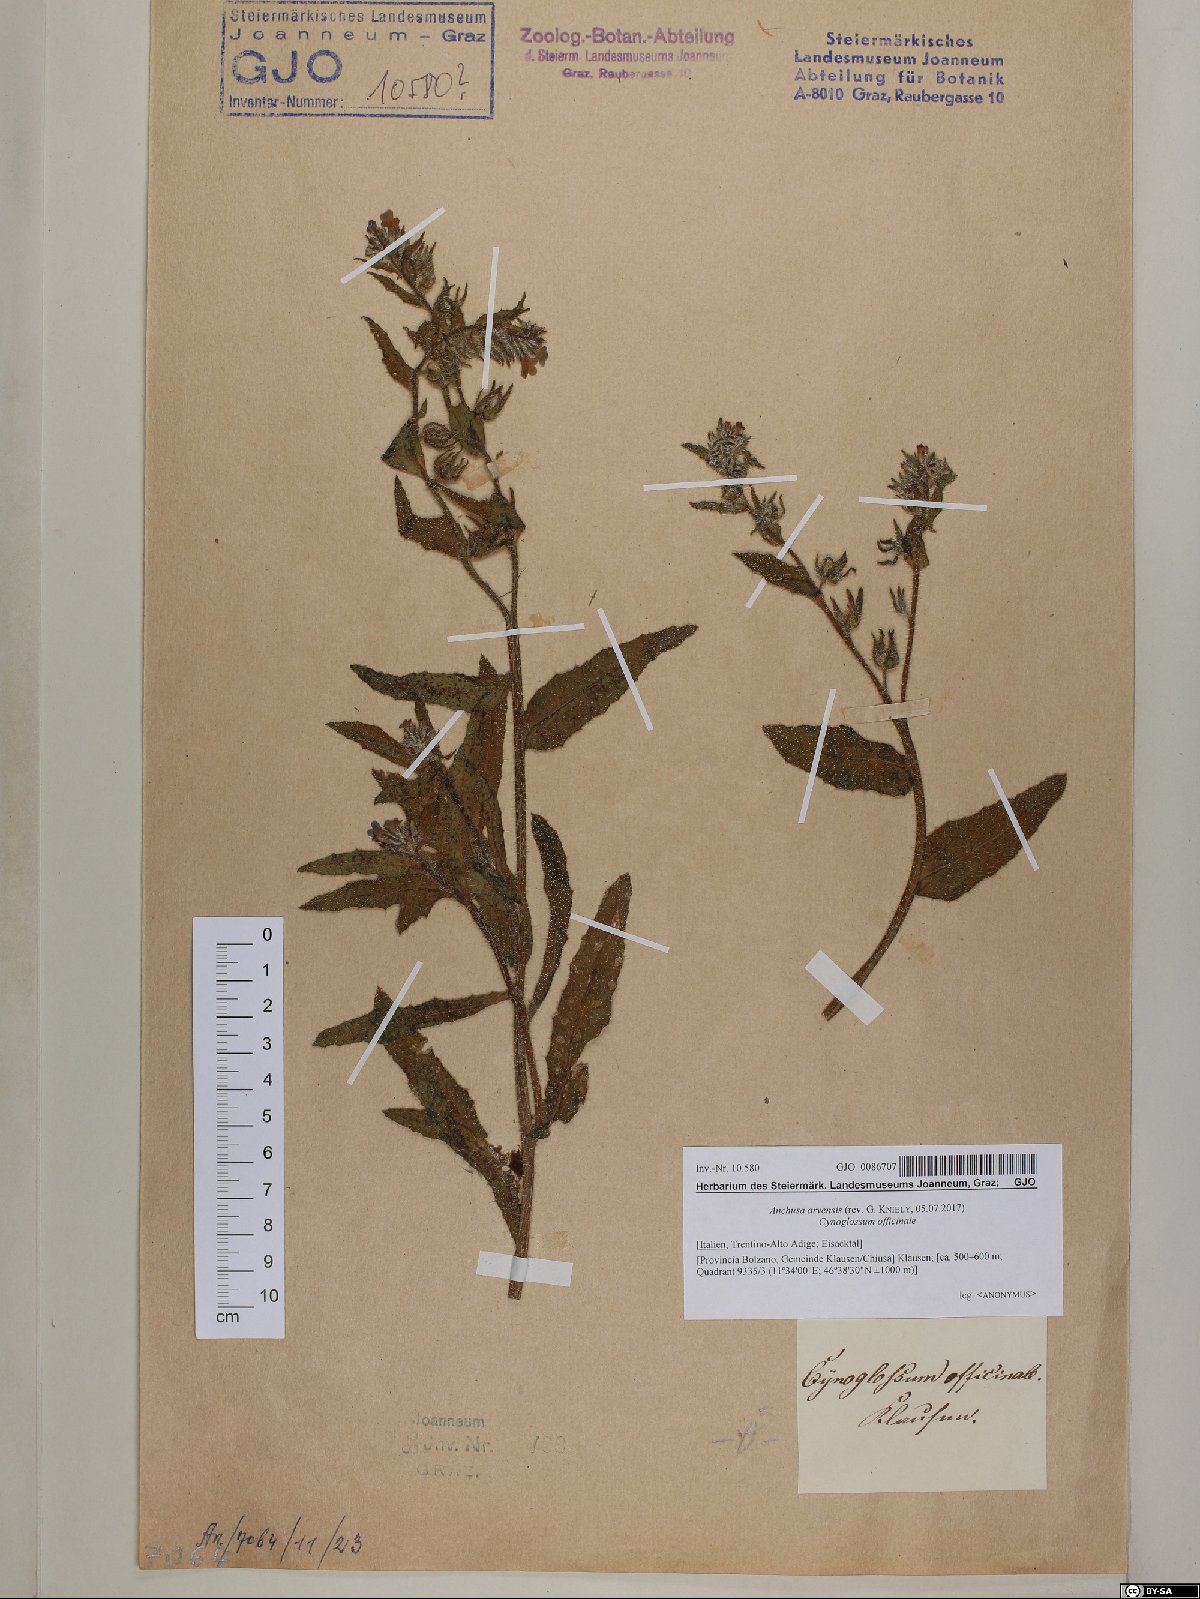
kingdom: Plantae
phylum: Tracheophyta
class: Magnoliopsida
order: Boraginales
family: Boraginaceae
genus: Lycopsis
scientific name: Lycopsis arvensis
